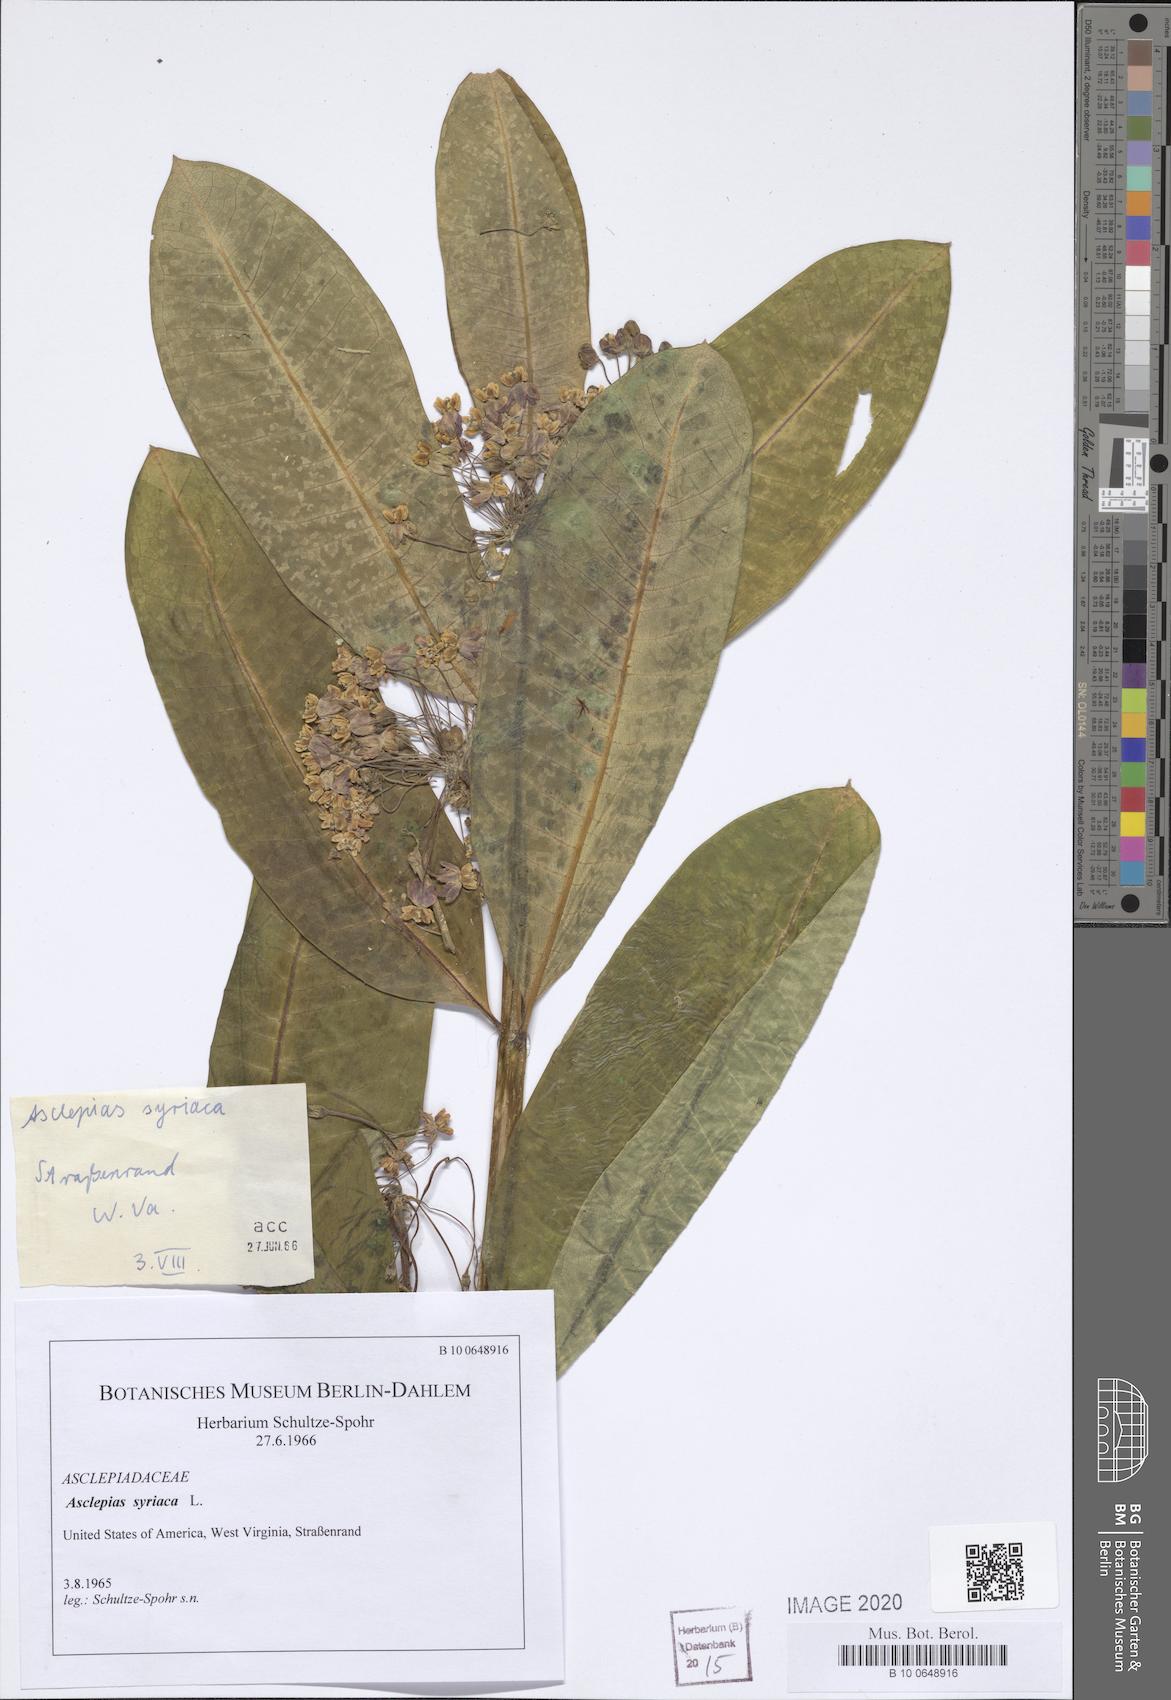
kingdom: Plantae
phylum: Tracheophyta
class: Magnoliopsida
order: Gentianales
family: Apocynaceae
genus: Asclepias
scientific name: Asclepias syriaca
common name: Common milkweed
